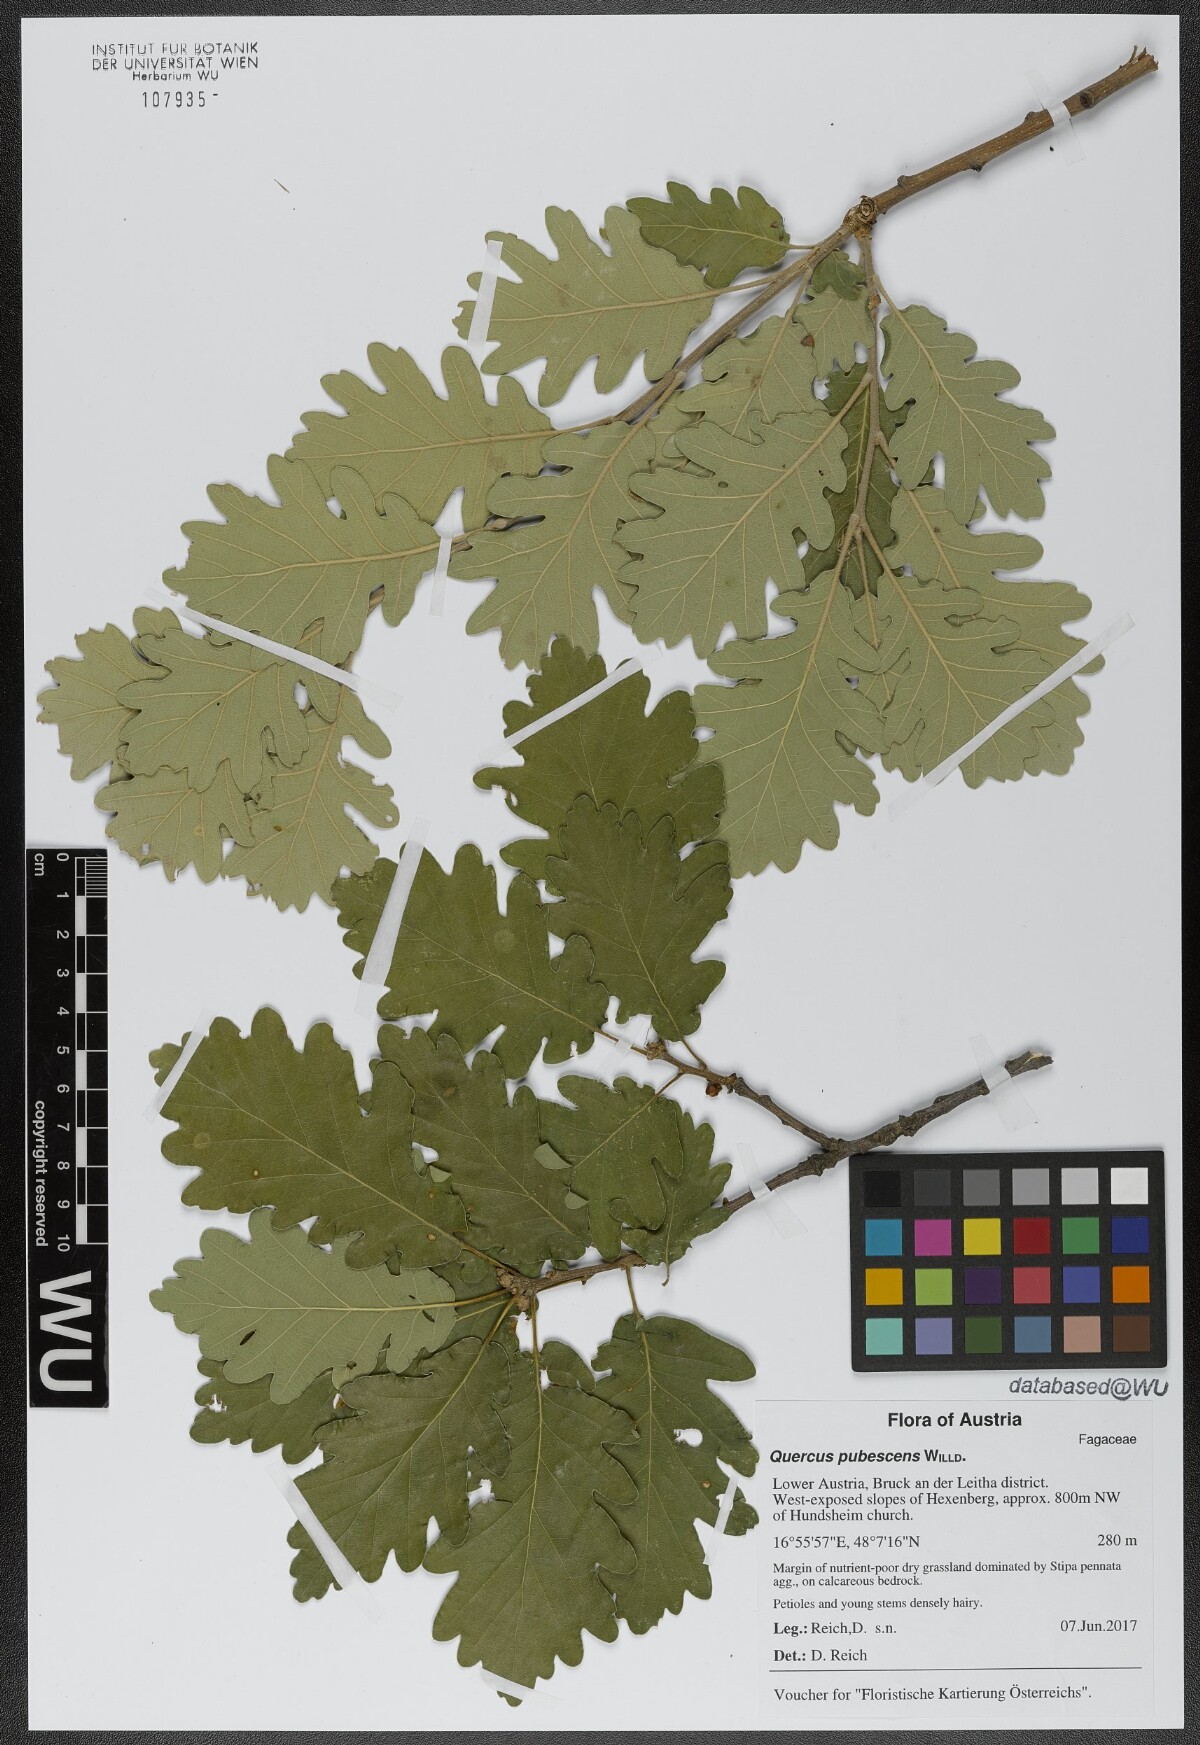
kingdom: Plantae
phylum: Tracheophyta
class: Magnoliopsida
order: Fagales
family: Fagaceae
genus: Quercus
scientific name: Quercus pubescens
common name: Downy oak
